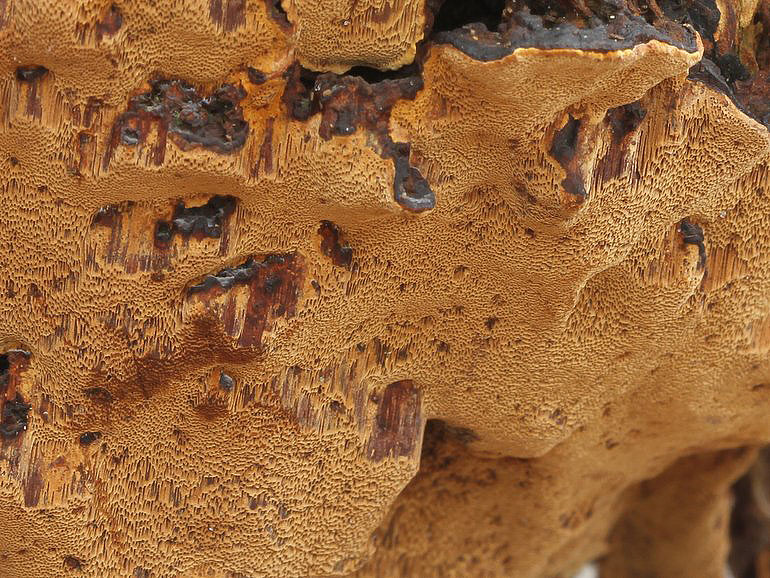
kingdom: Fungi
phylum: Basidiomycota
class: Agaricomycetes
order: Hymenochaetales
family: Hymenochaetaceae
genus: Phellinopsis
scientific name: Phellinopsis conchata
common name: pile-ildporesvamp
